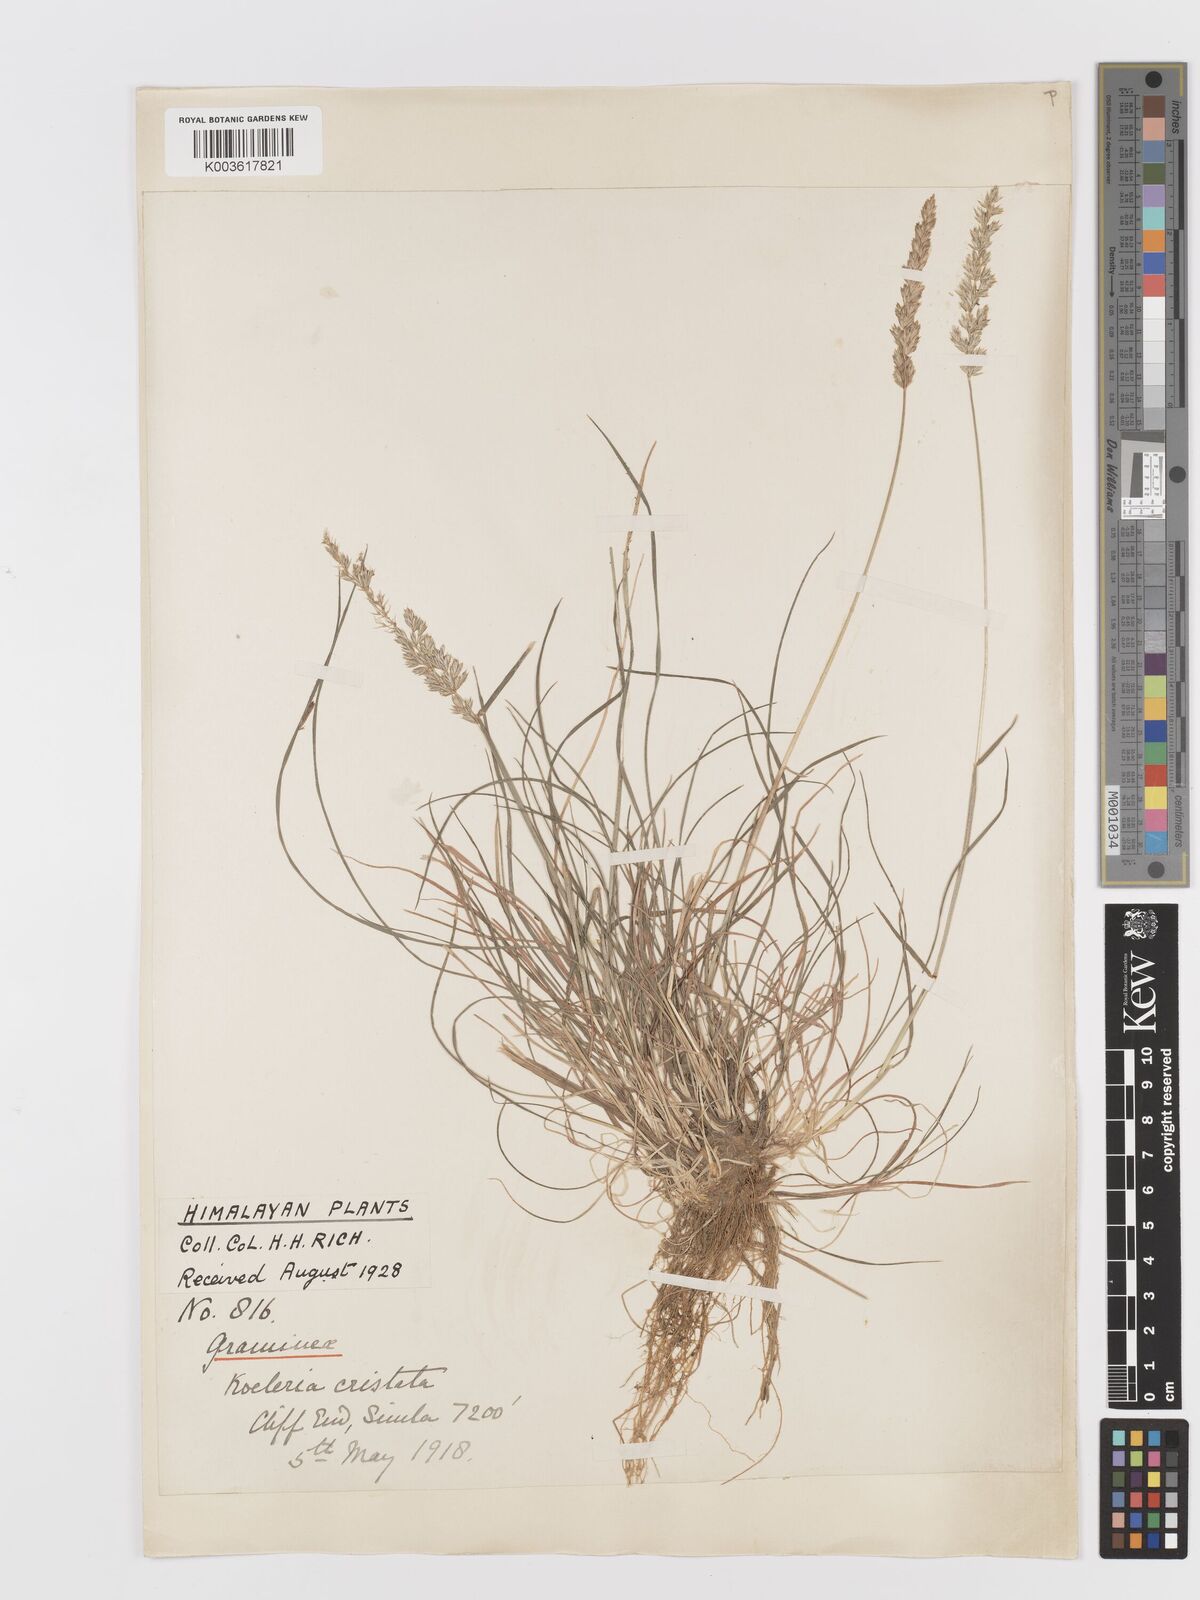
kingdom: Plantae
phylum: Tracheophyta
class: Liliopsida
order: Poales
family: Poaceae
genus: Koeleria
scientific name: Koeleria macrantha
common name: Crested hair-grass
